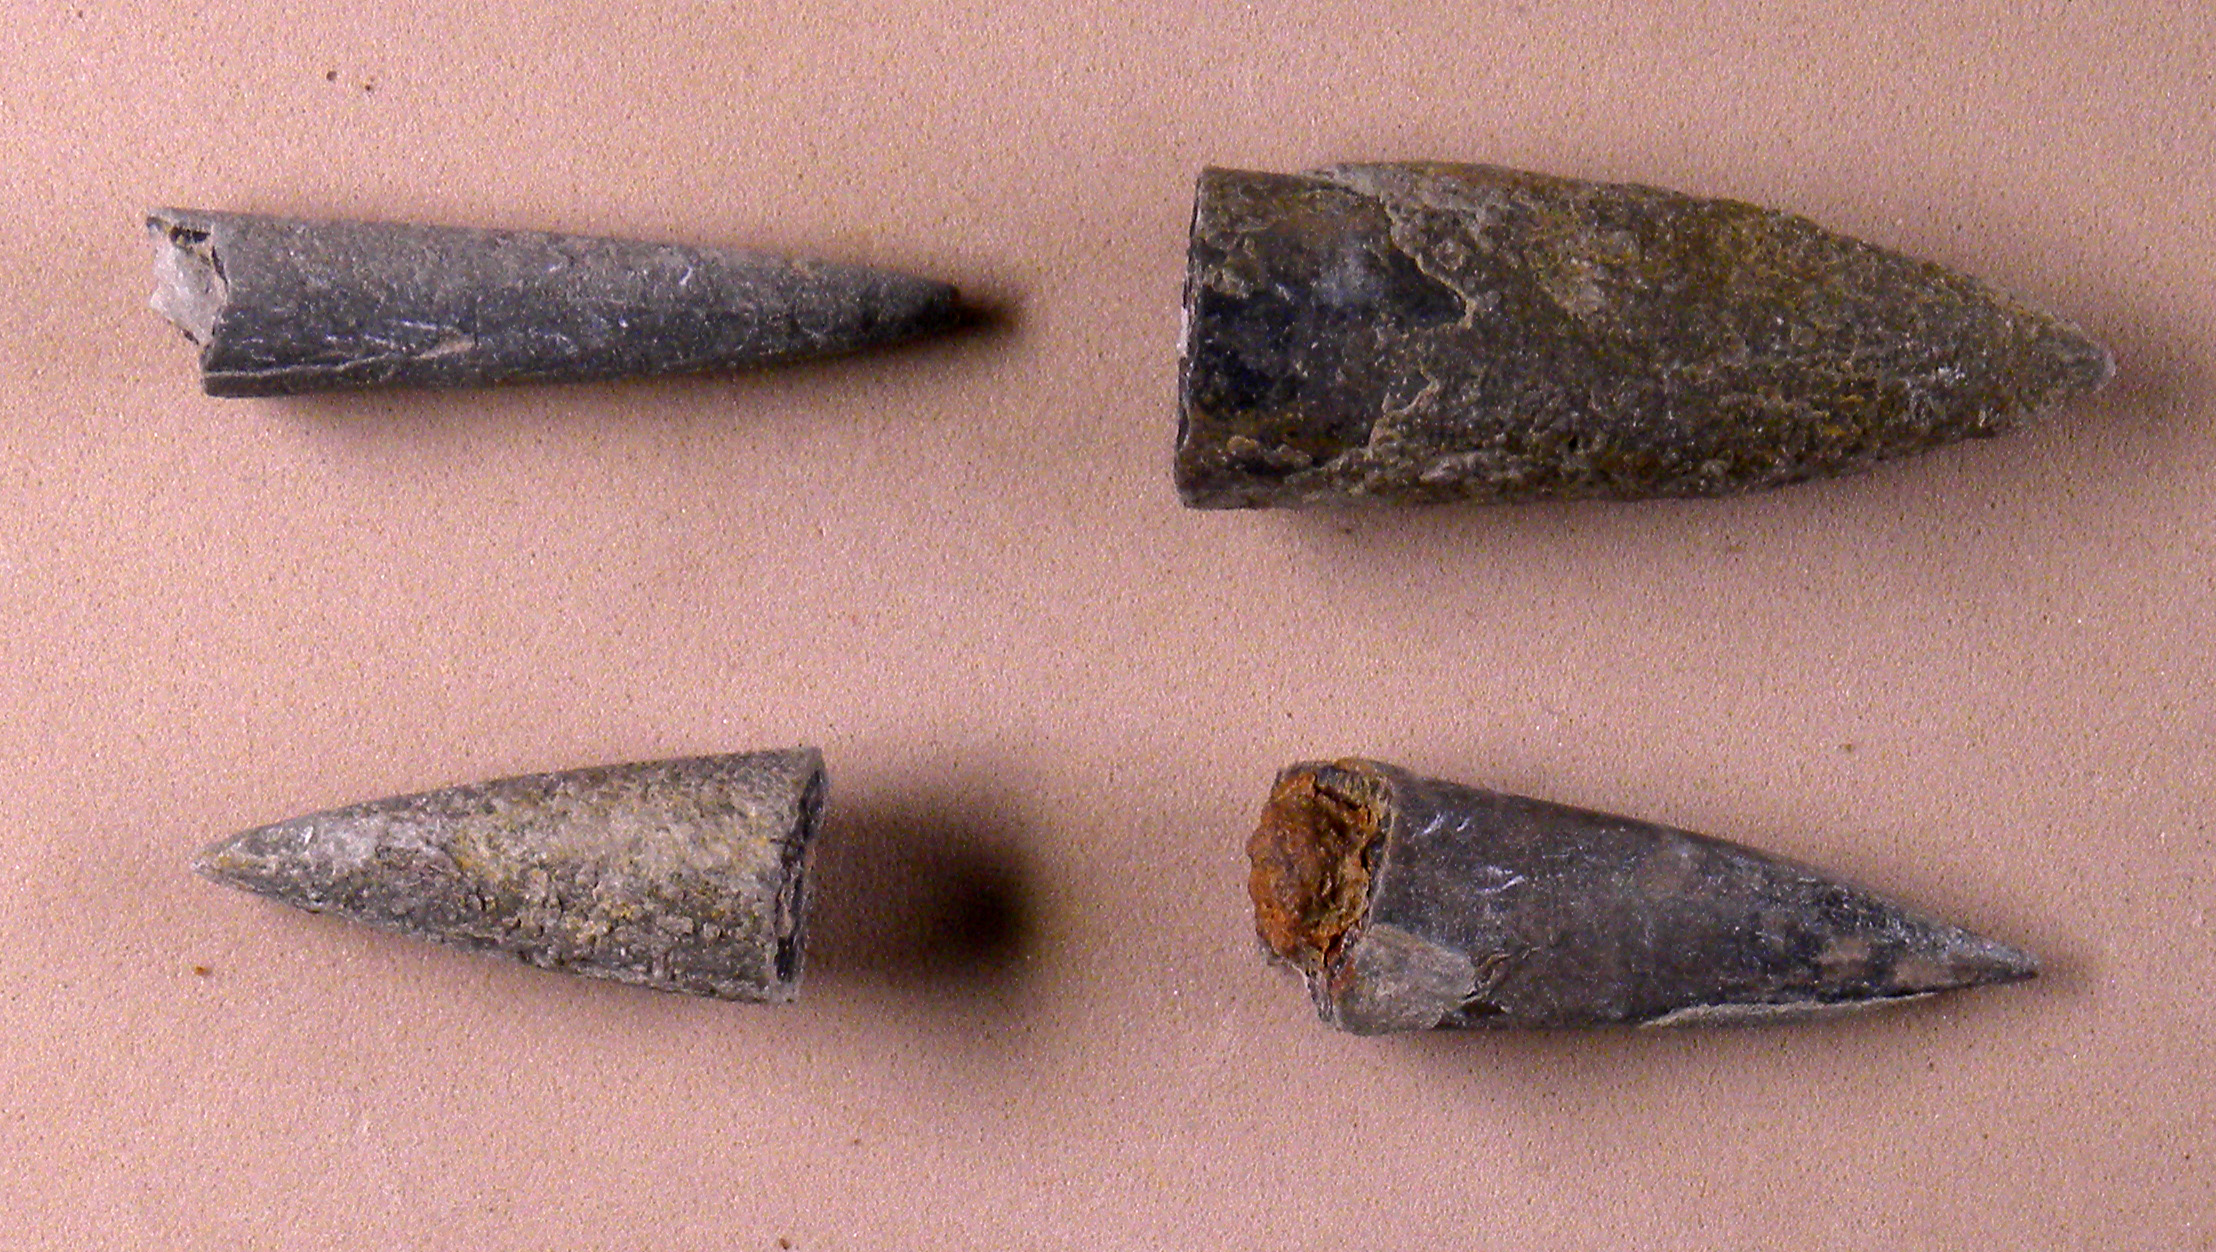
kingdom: Animalia
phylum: Mollusca
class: Cephalopoda
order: Belemnitida
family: Megateuthididae
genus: Acrocoelites
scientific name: Acrocoelites pyramidalis
